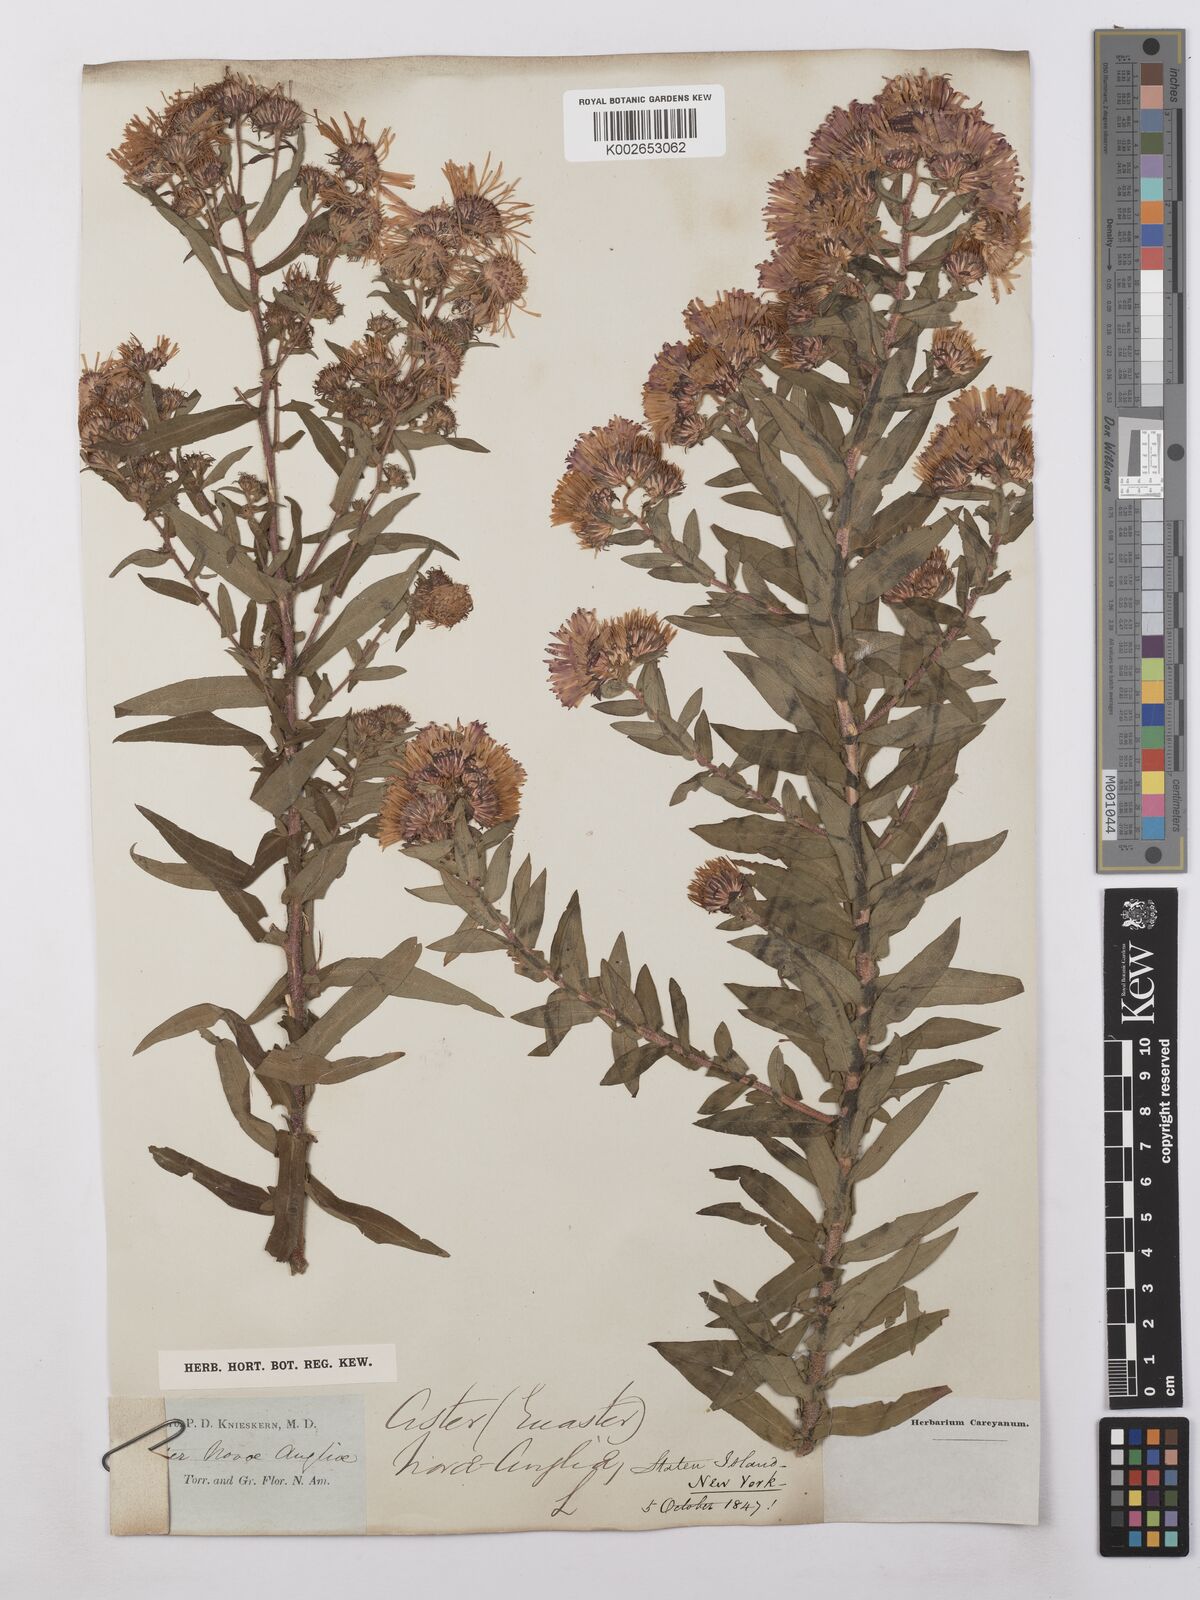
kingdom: Plantae
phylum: Tracheophyta
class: Magnoliopsida
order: Asterales
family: Asteraceae
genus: Symphyotrichum
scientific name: Symphyotrichum novae-angliae
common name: Michaelmas daisy
